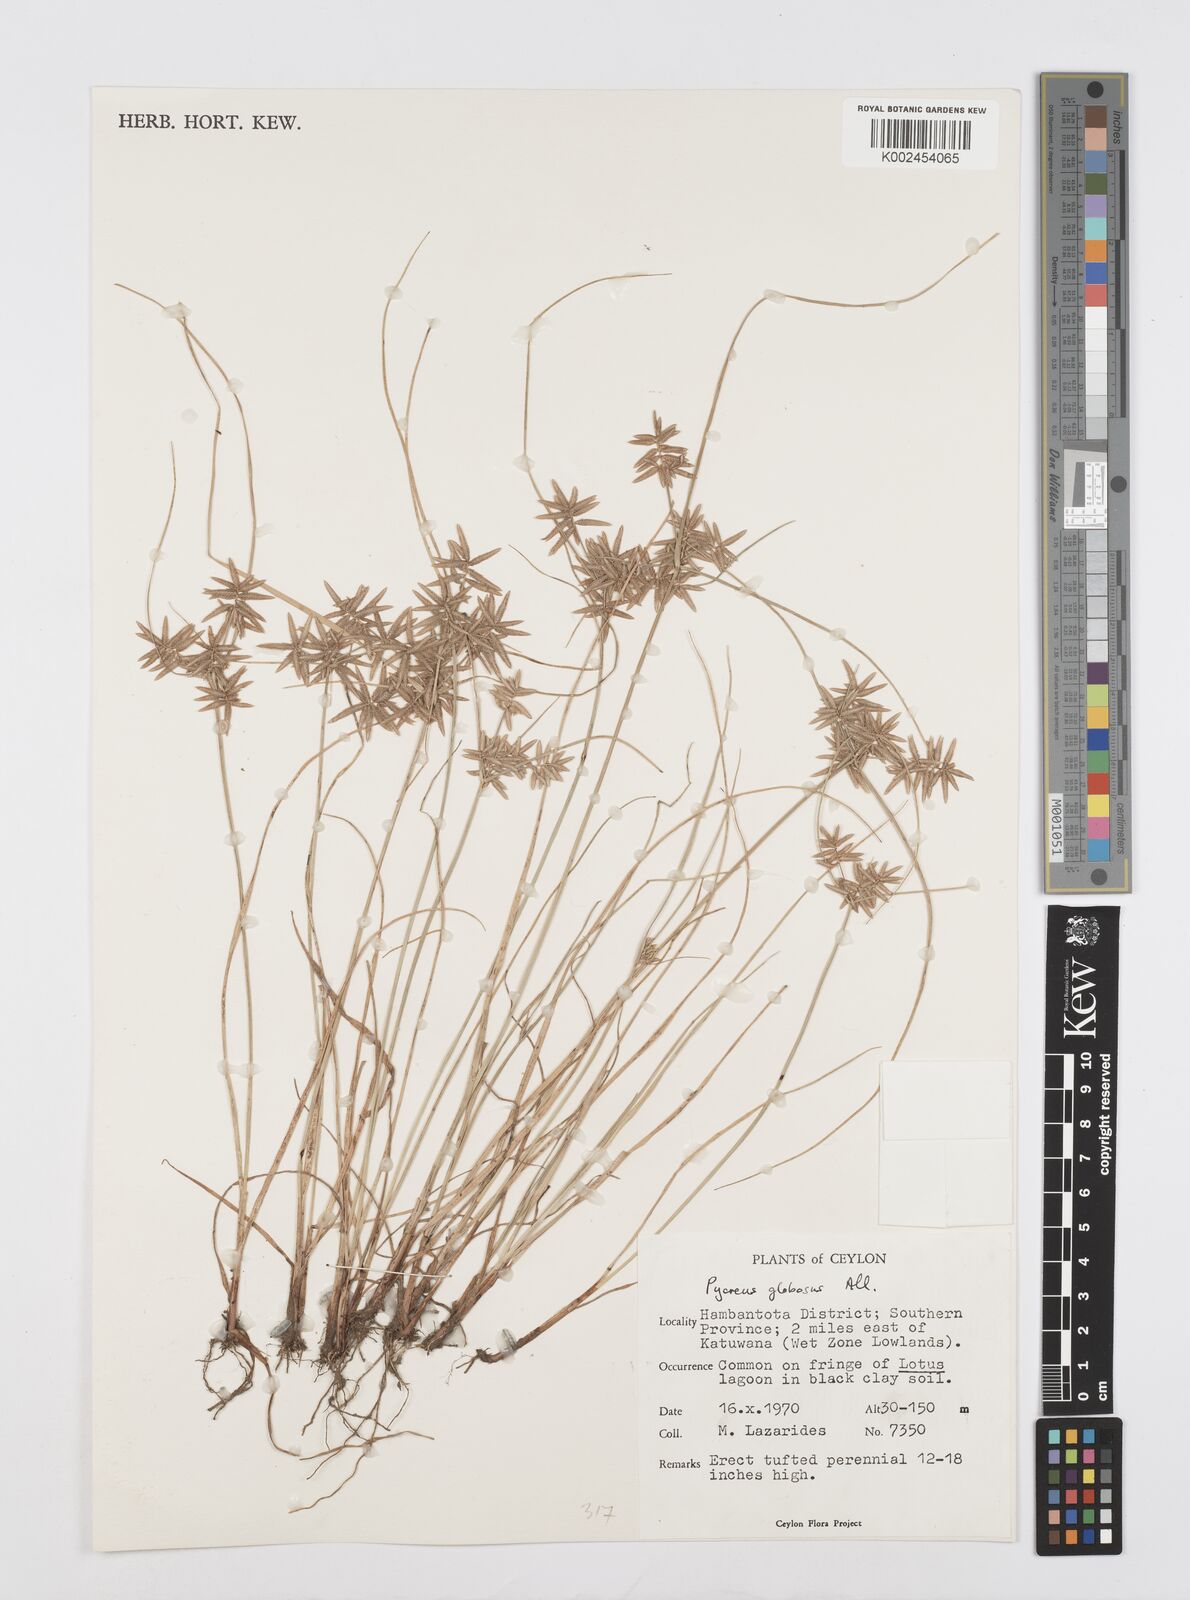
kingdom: Plantae
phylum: Tracheophyta
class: Liliopsida
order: Poales
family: Cyperaceae
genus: Cyperus
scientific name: Cyperus flavidus
